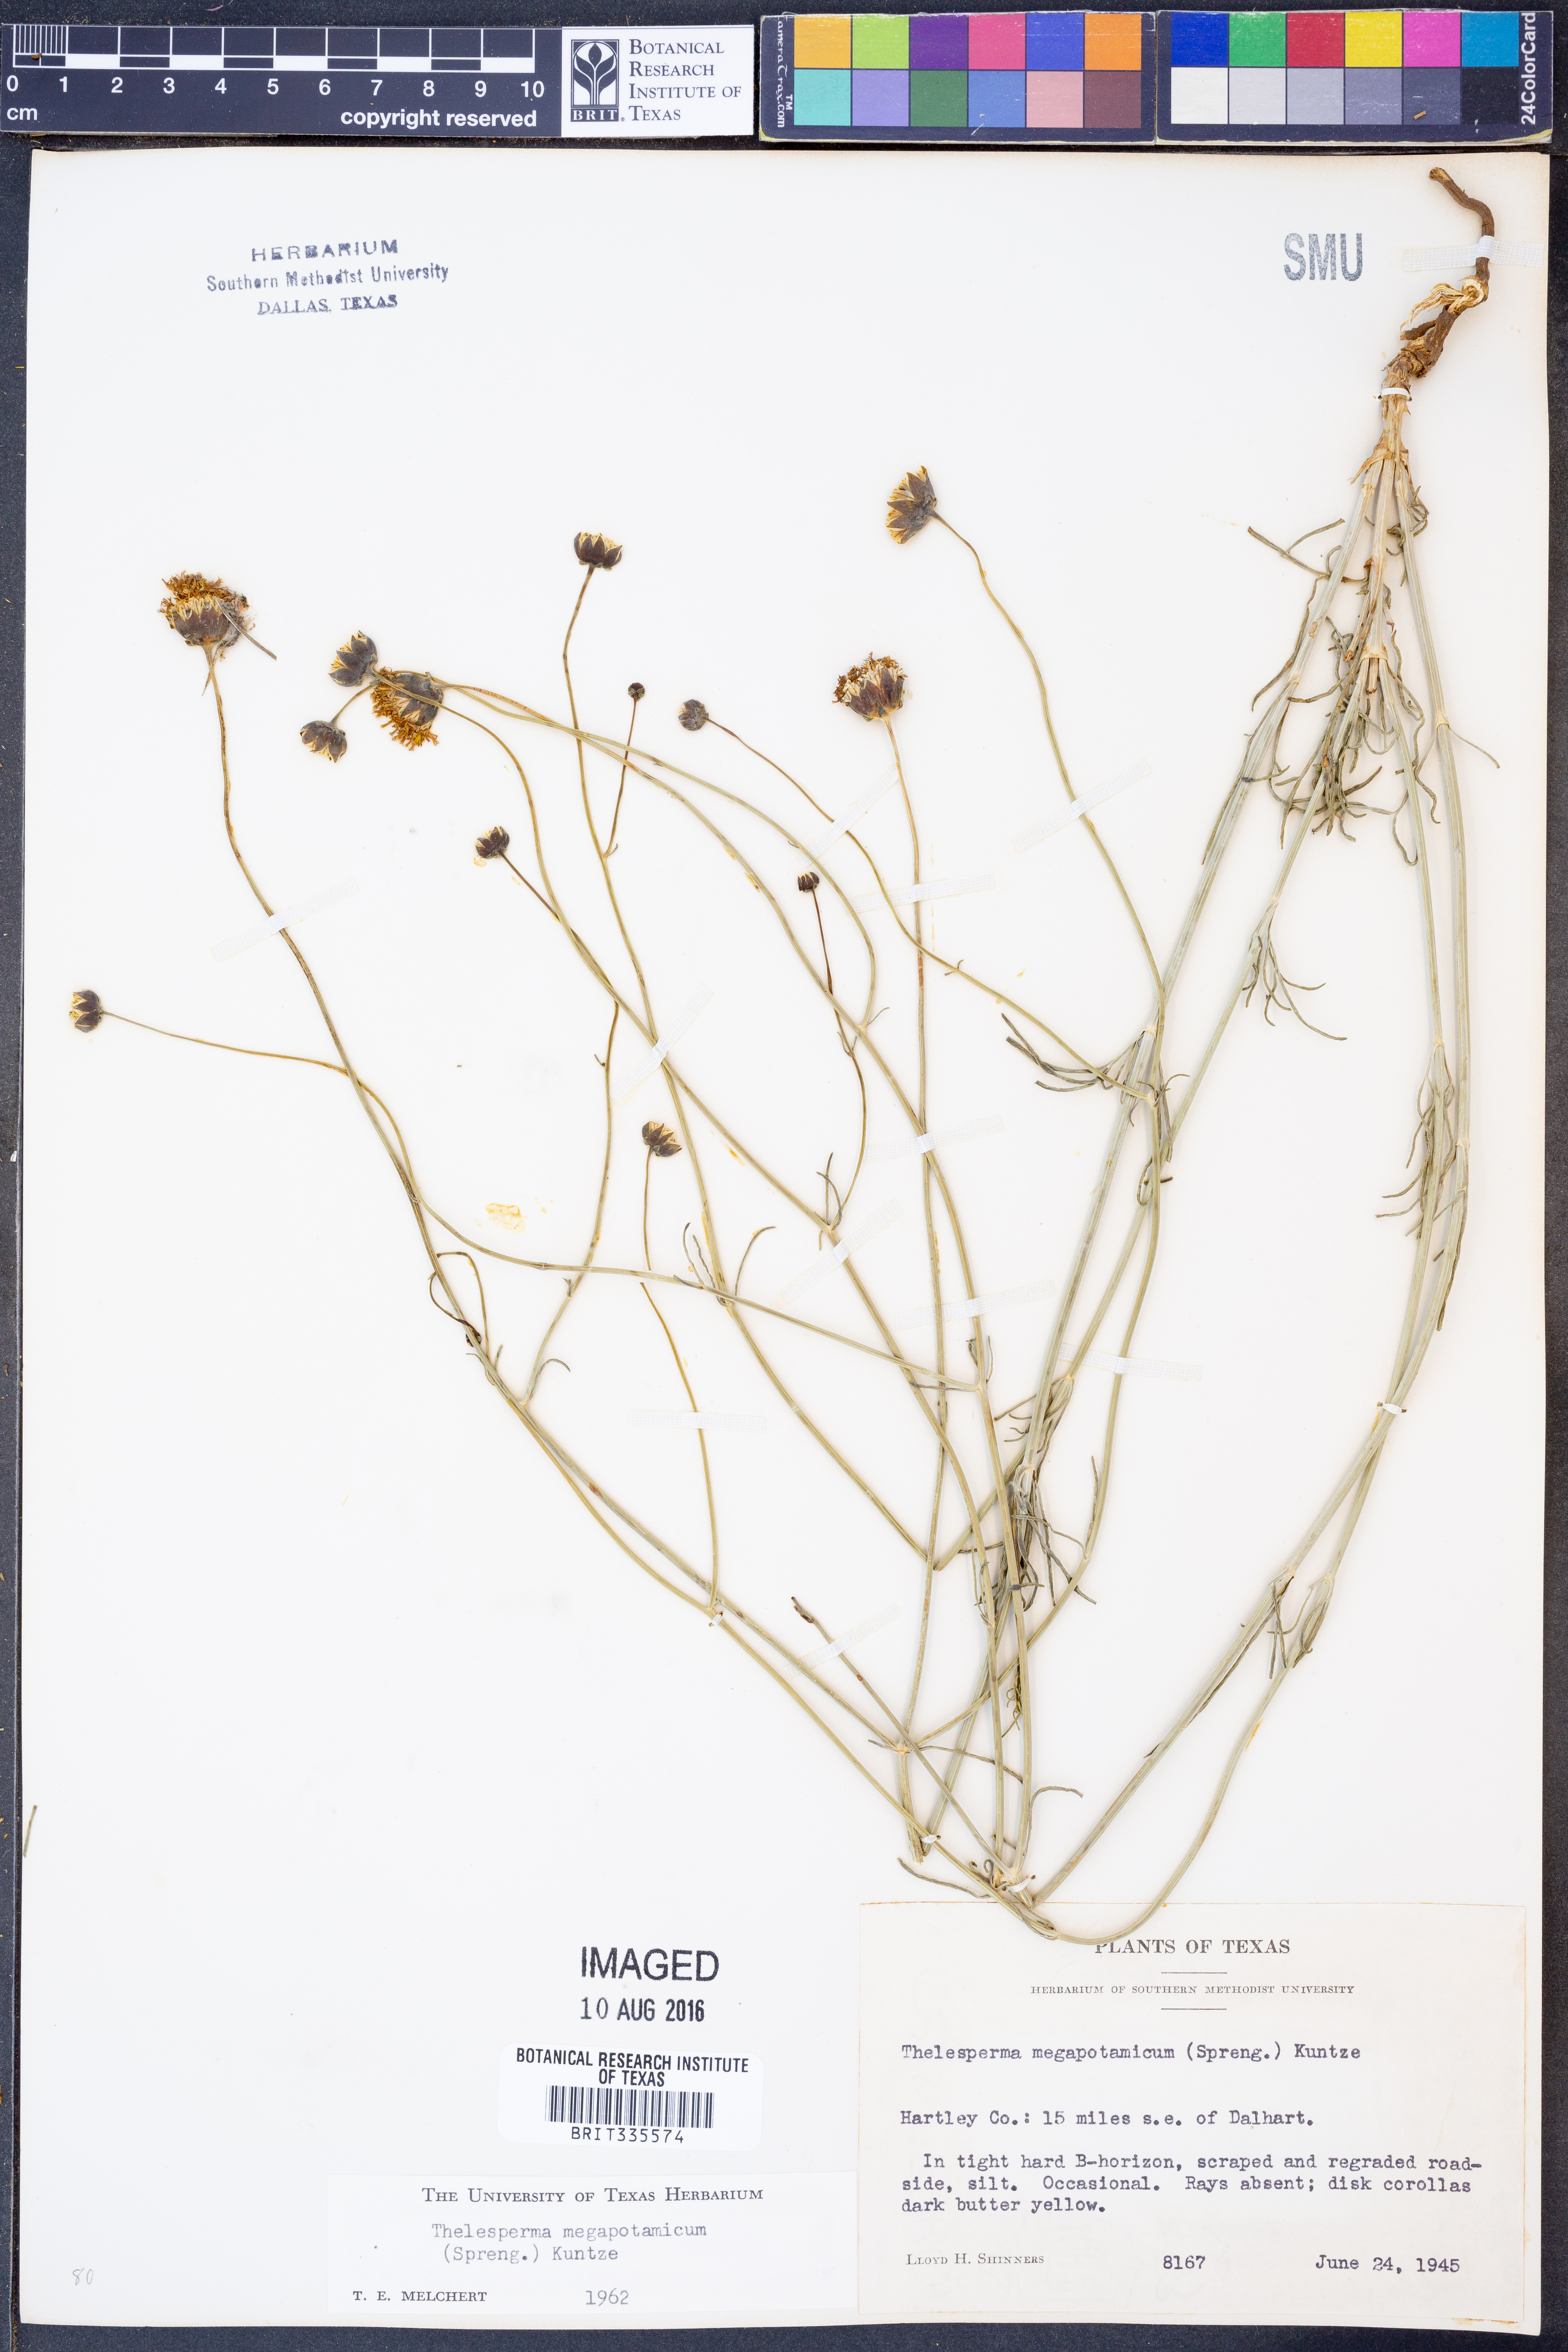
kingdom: Plantae
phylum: Tracheophyta
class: Magnoliopsida
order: Asterales
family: Asteraceae
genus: Thelesperma
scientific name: Thelesperma megapotamicum
